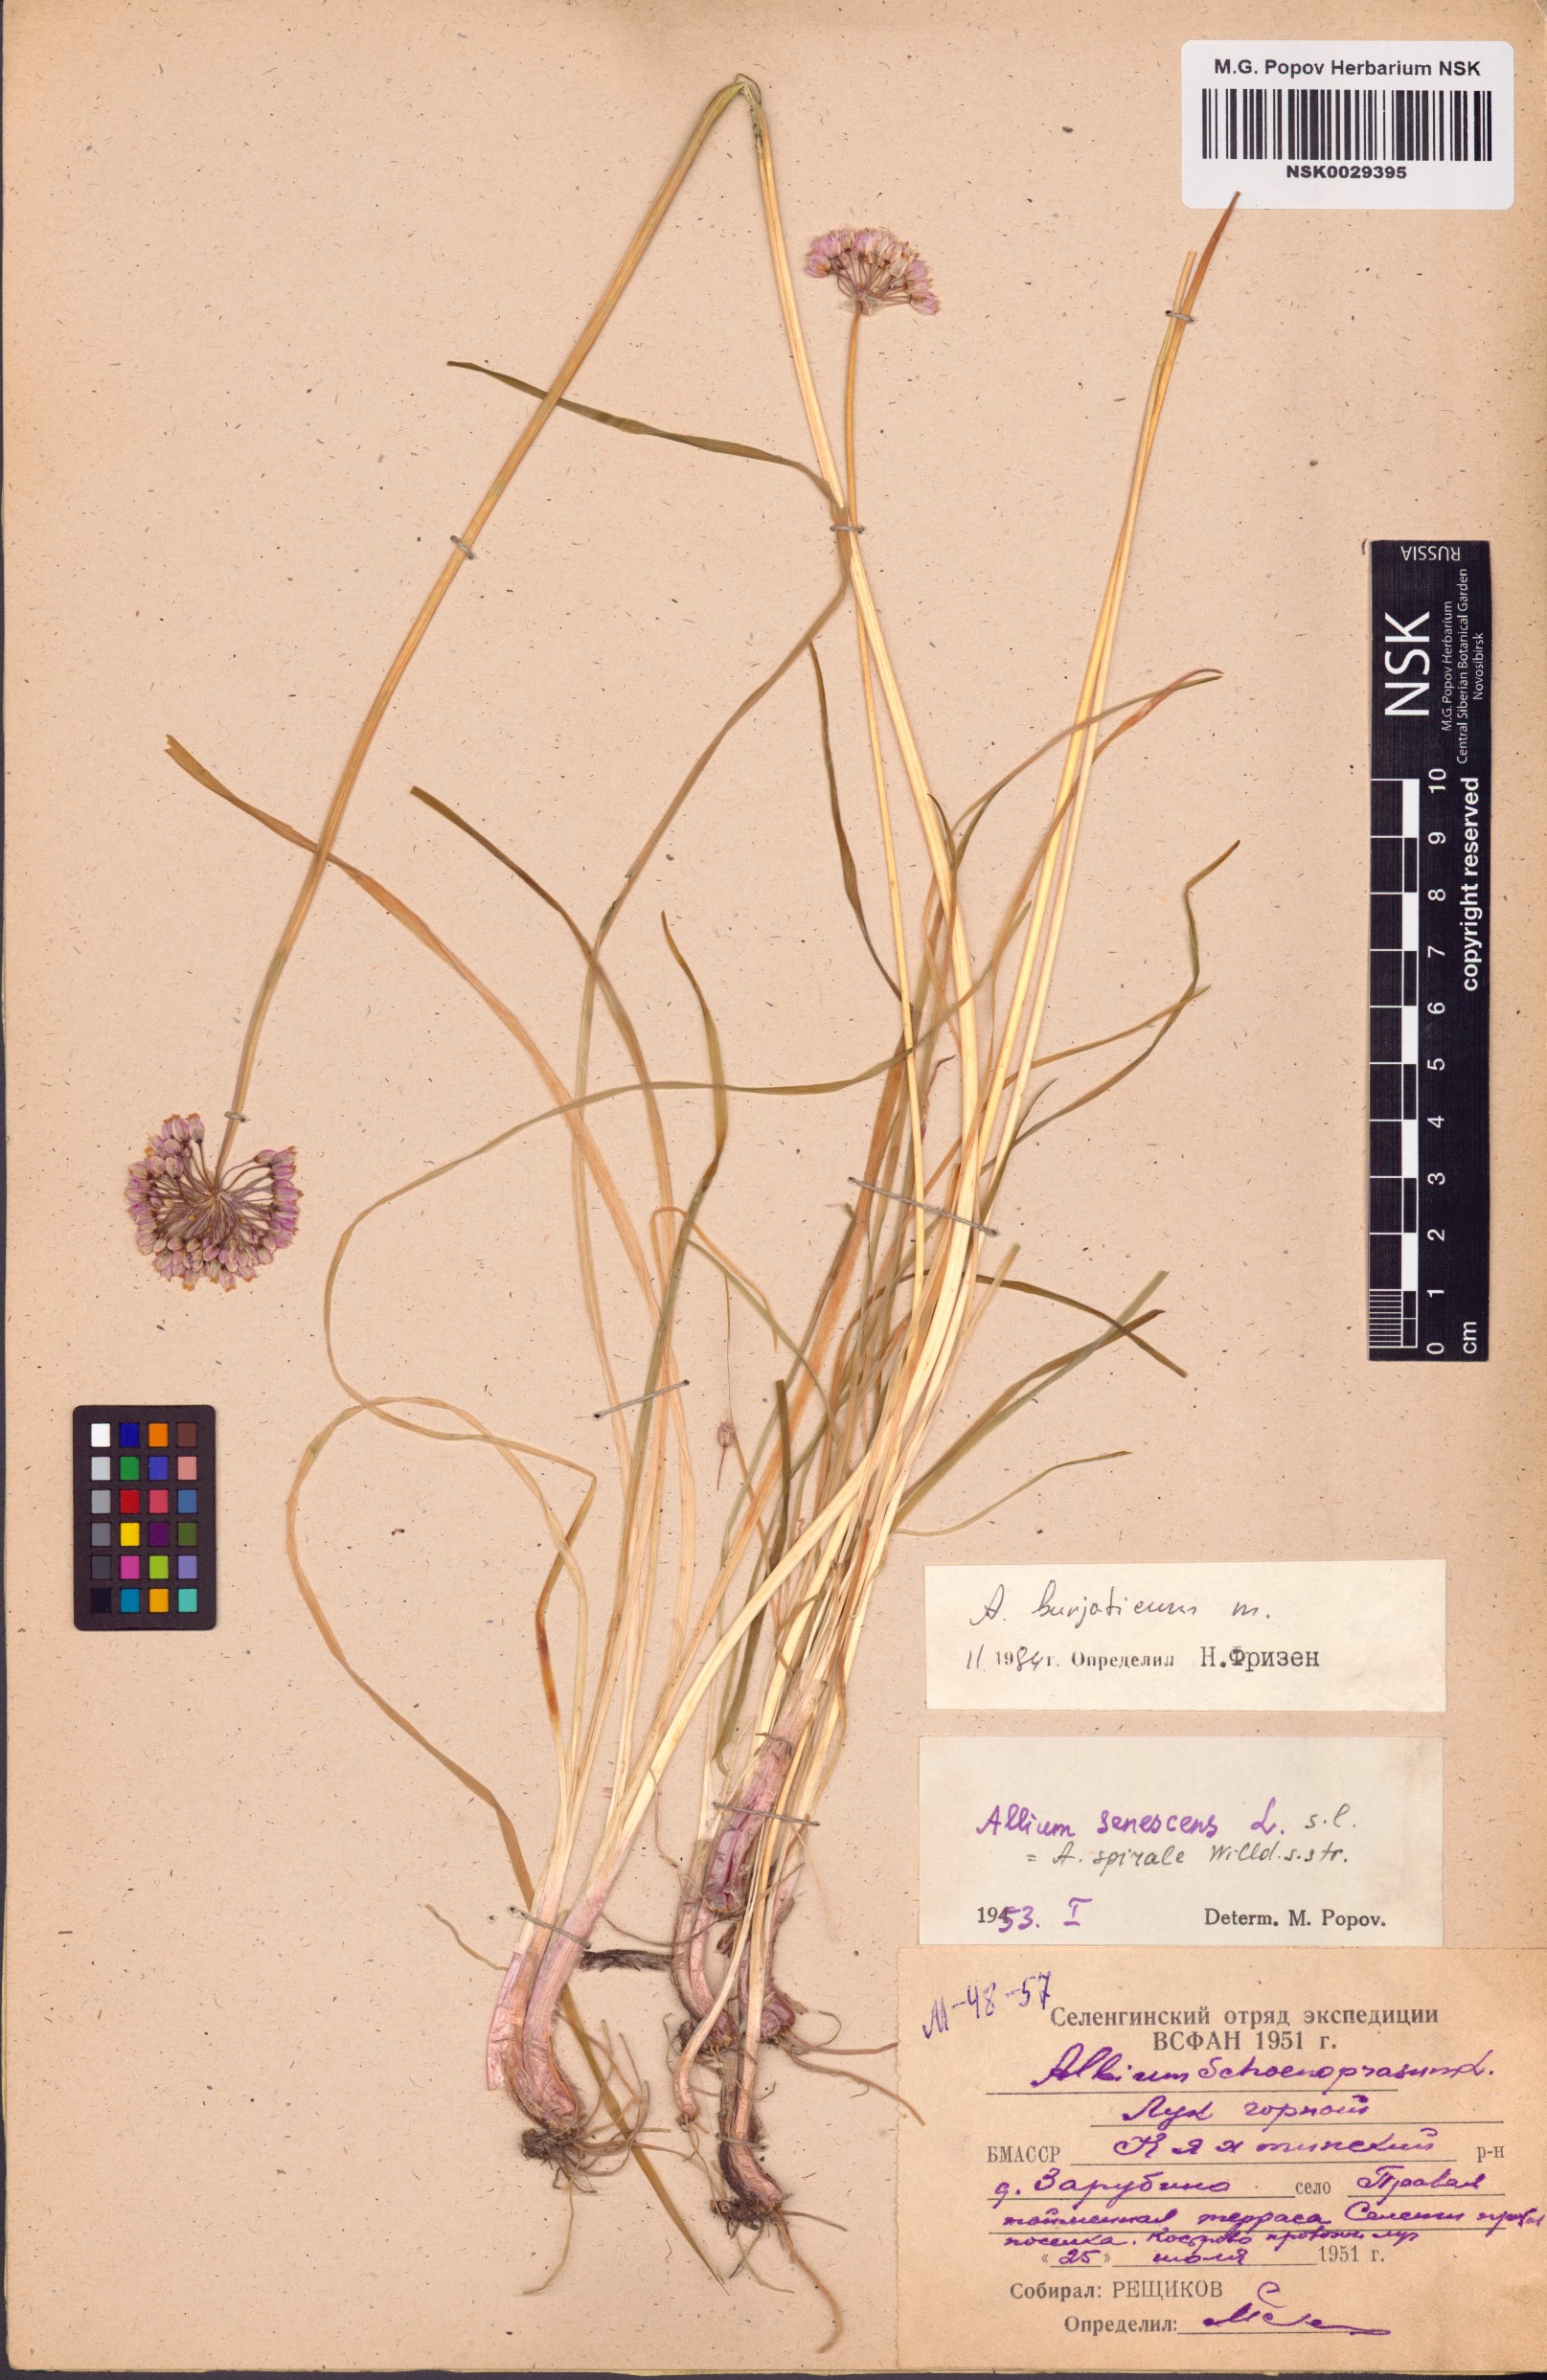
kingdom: Plantae
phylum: Tracheophyta
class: Liliopsida
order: Asparagales
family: Amaryllidaceae
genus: Allium
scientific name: Allium burjaticum
